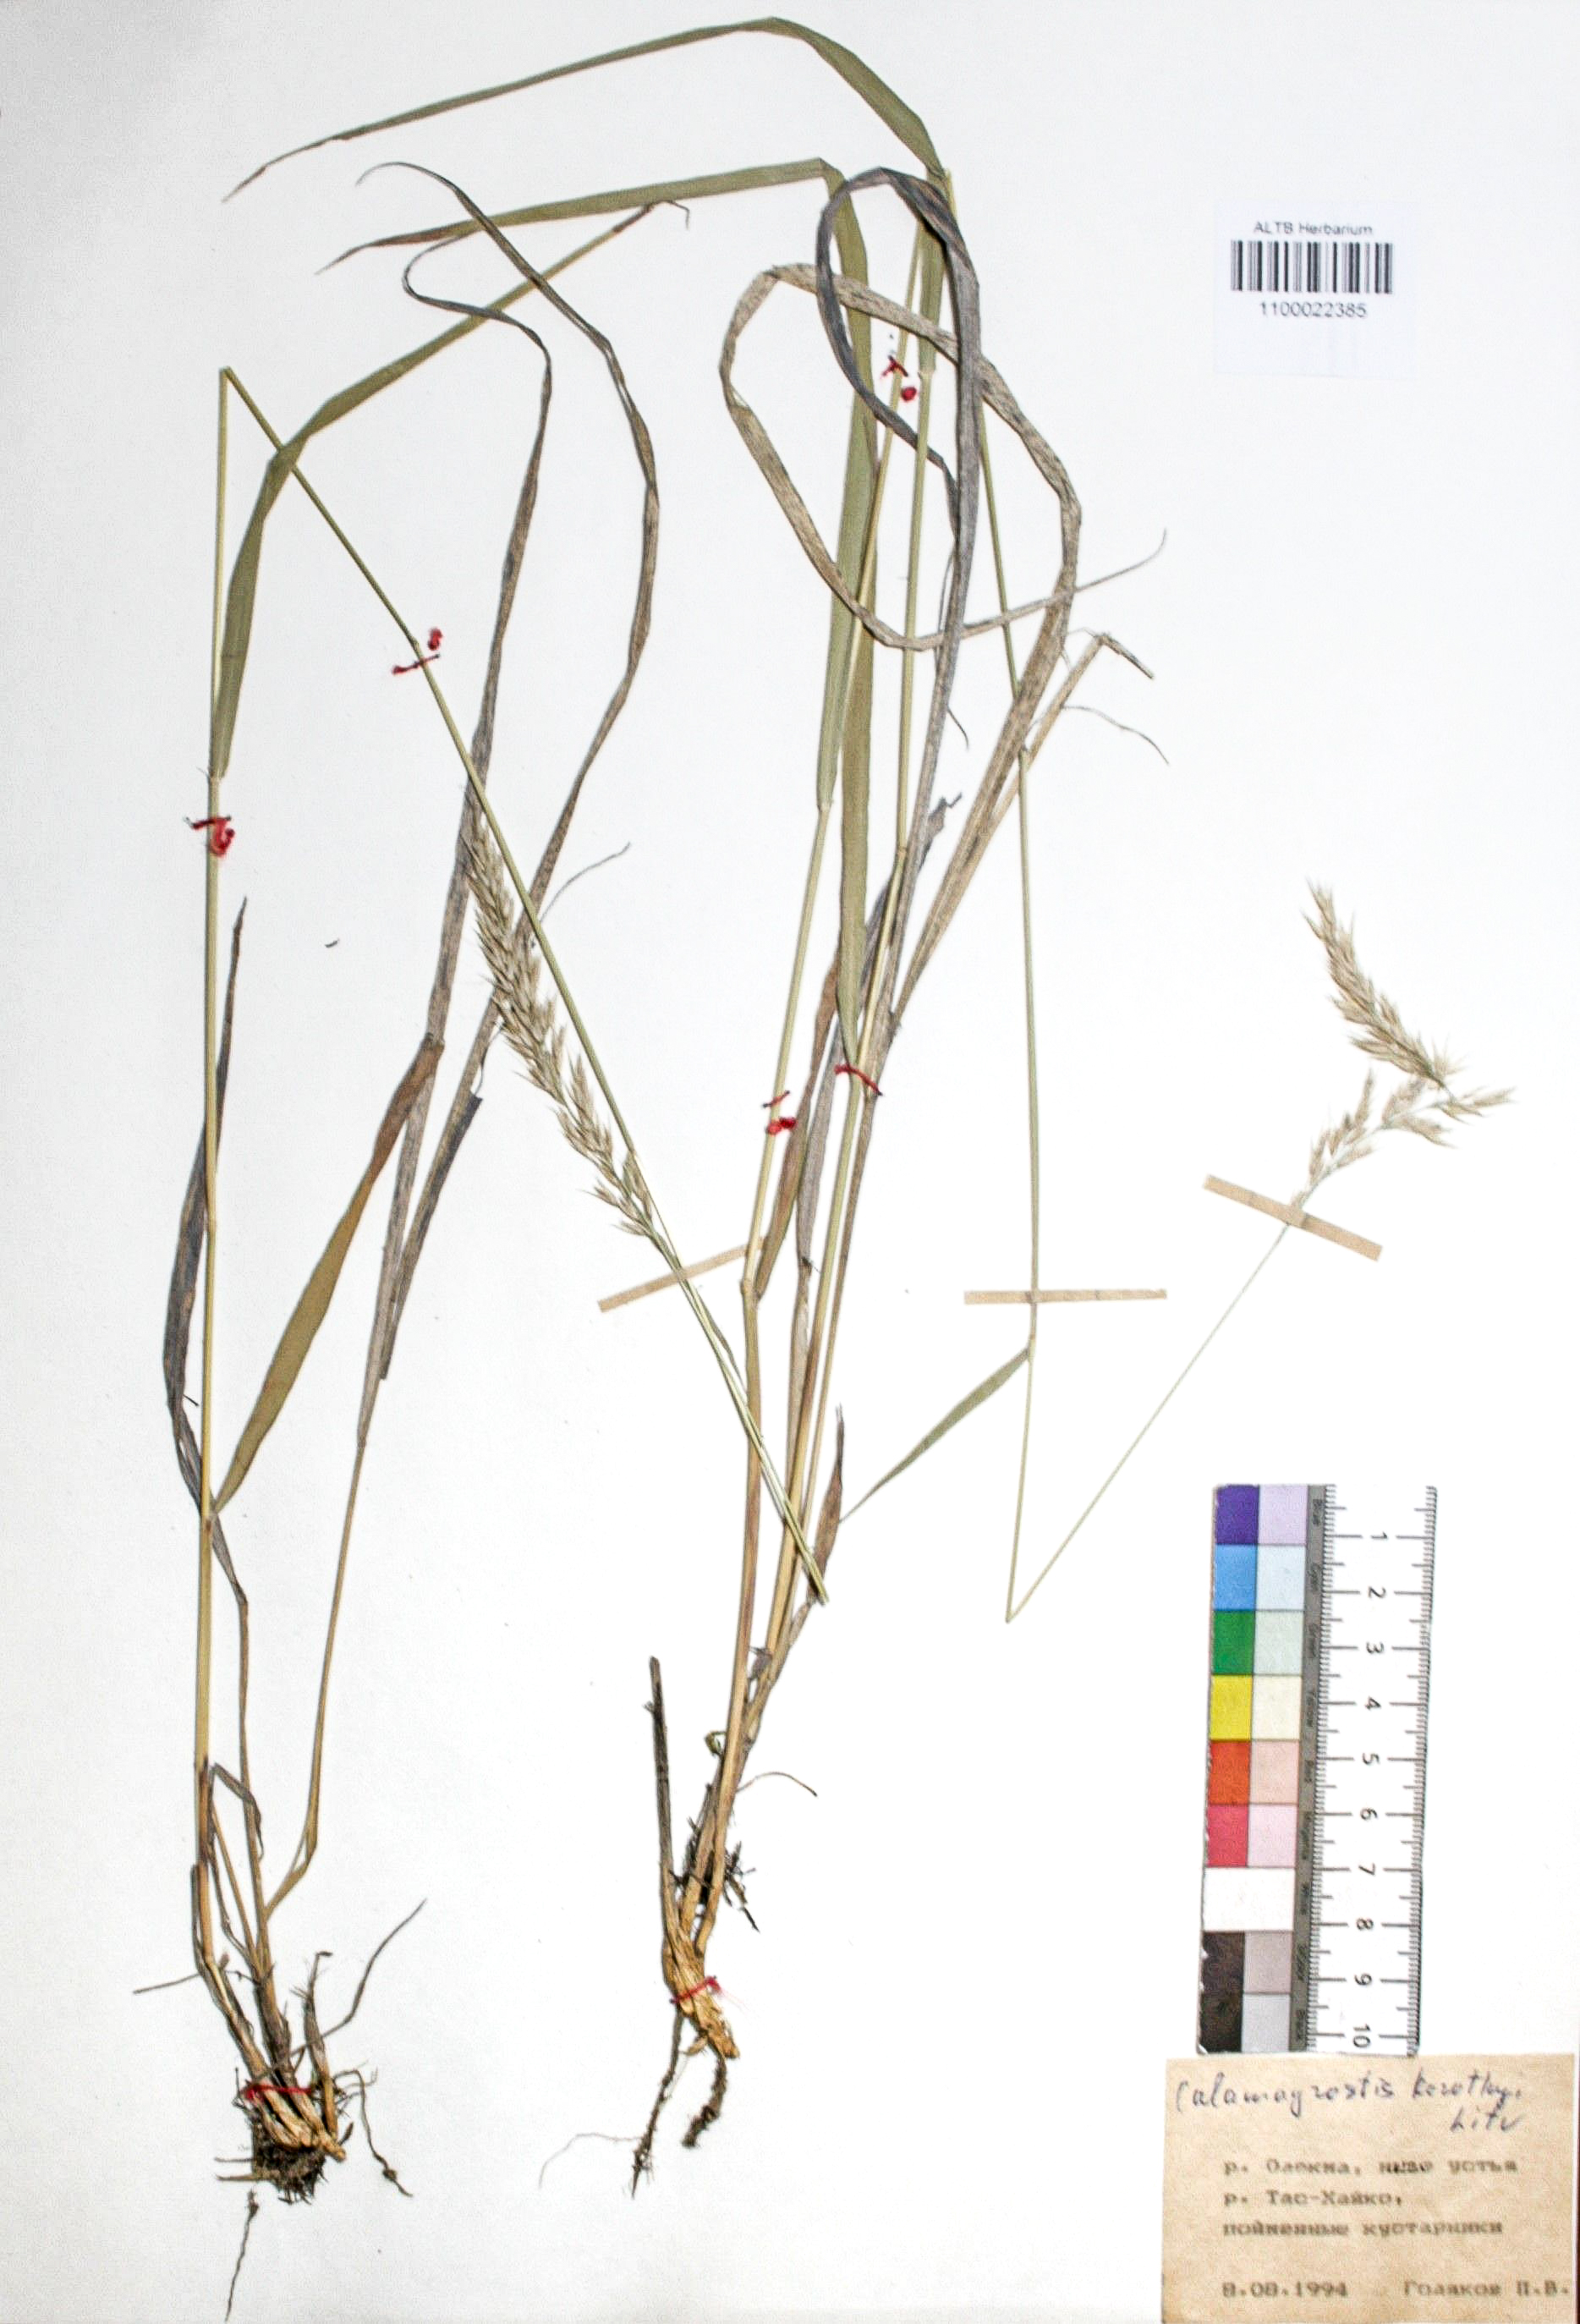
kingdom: Plantae
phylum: Tracheophyta
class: Liliopsida
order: Poales
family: Poaceae
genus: Calamagrostis
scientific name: Calamagrostis korotkyi
